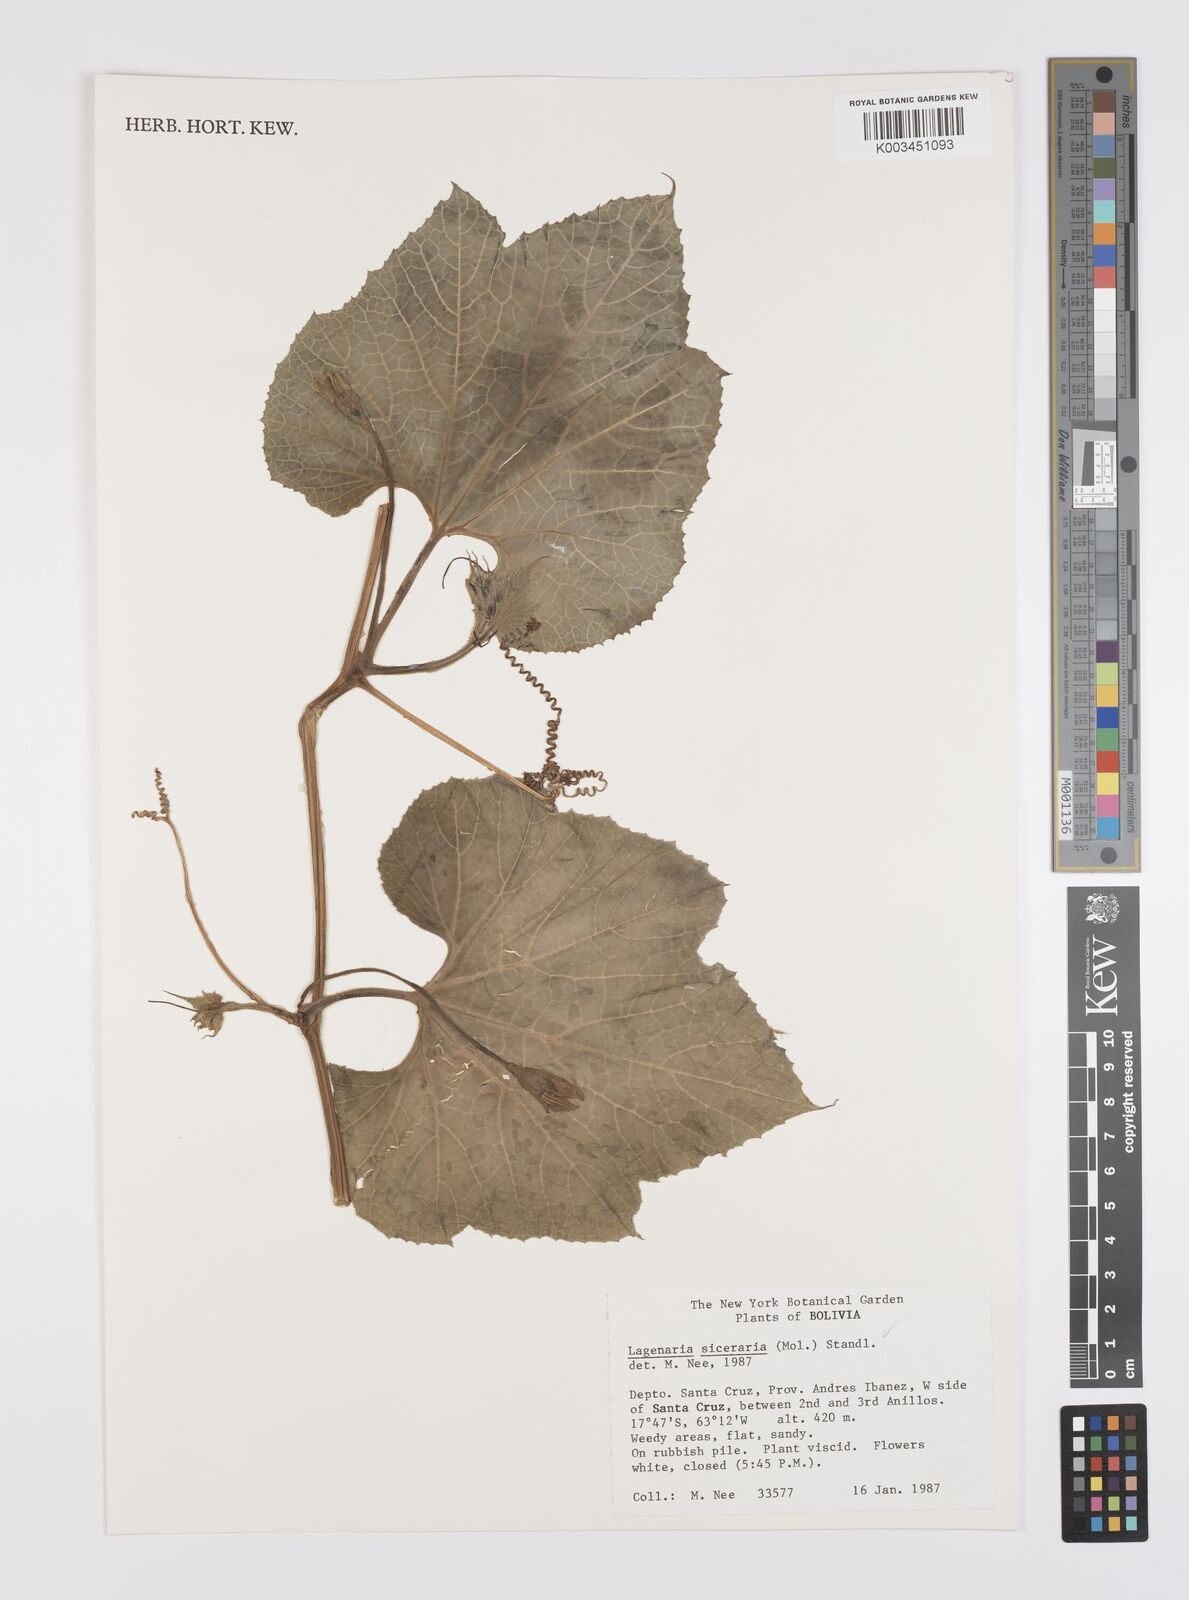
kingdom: Plantae
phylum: Tracheophyta
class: Magnoliopsida
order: Cucurbitales
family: Cucurbitaceae
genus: Lagenaria
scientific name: Lagenaria siceraria
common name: Bottle gourd
